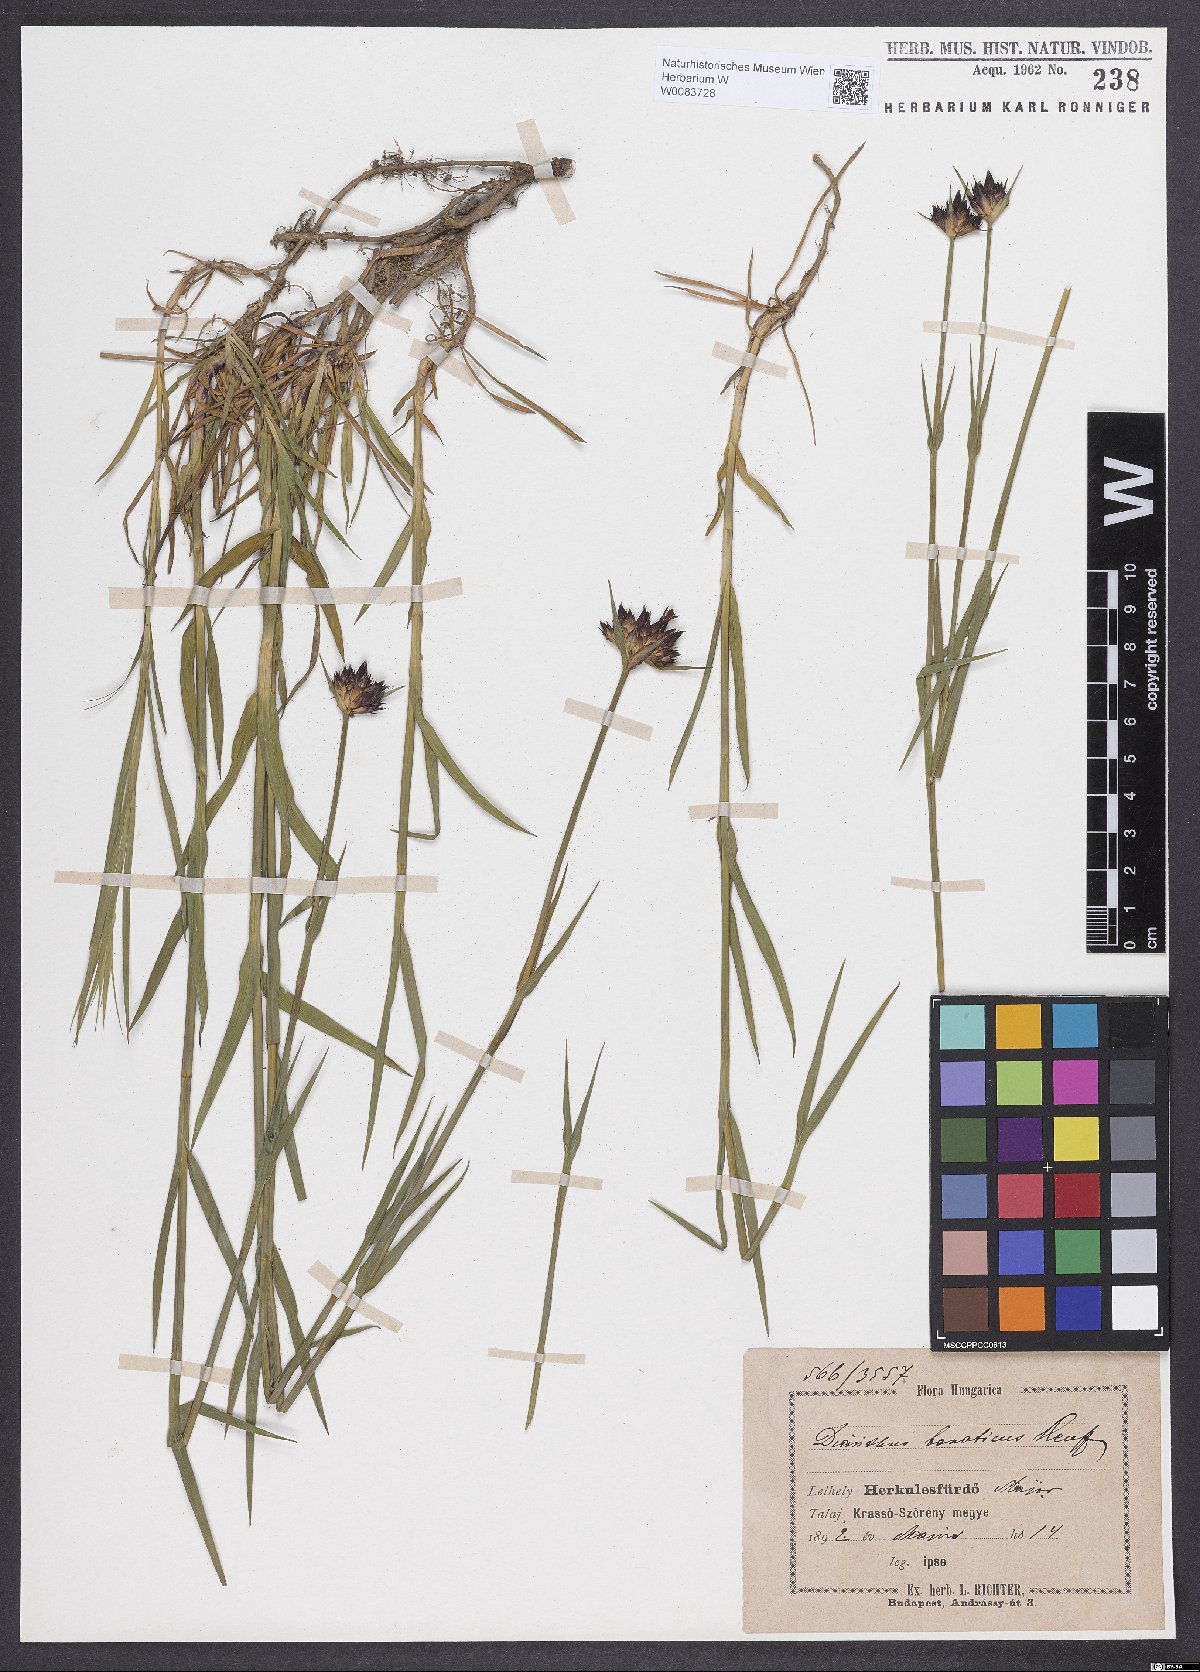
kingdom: Plantae
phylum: Tracheophyta
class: Magnoliopsida
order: Caryophyllales
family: Caryophyllaceae
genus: Dianthus
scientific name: Dianthus giganteus
